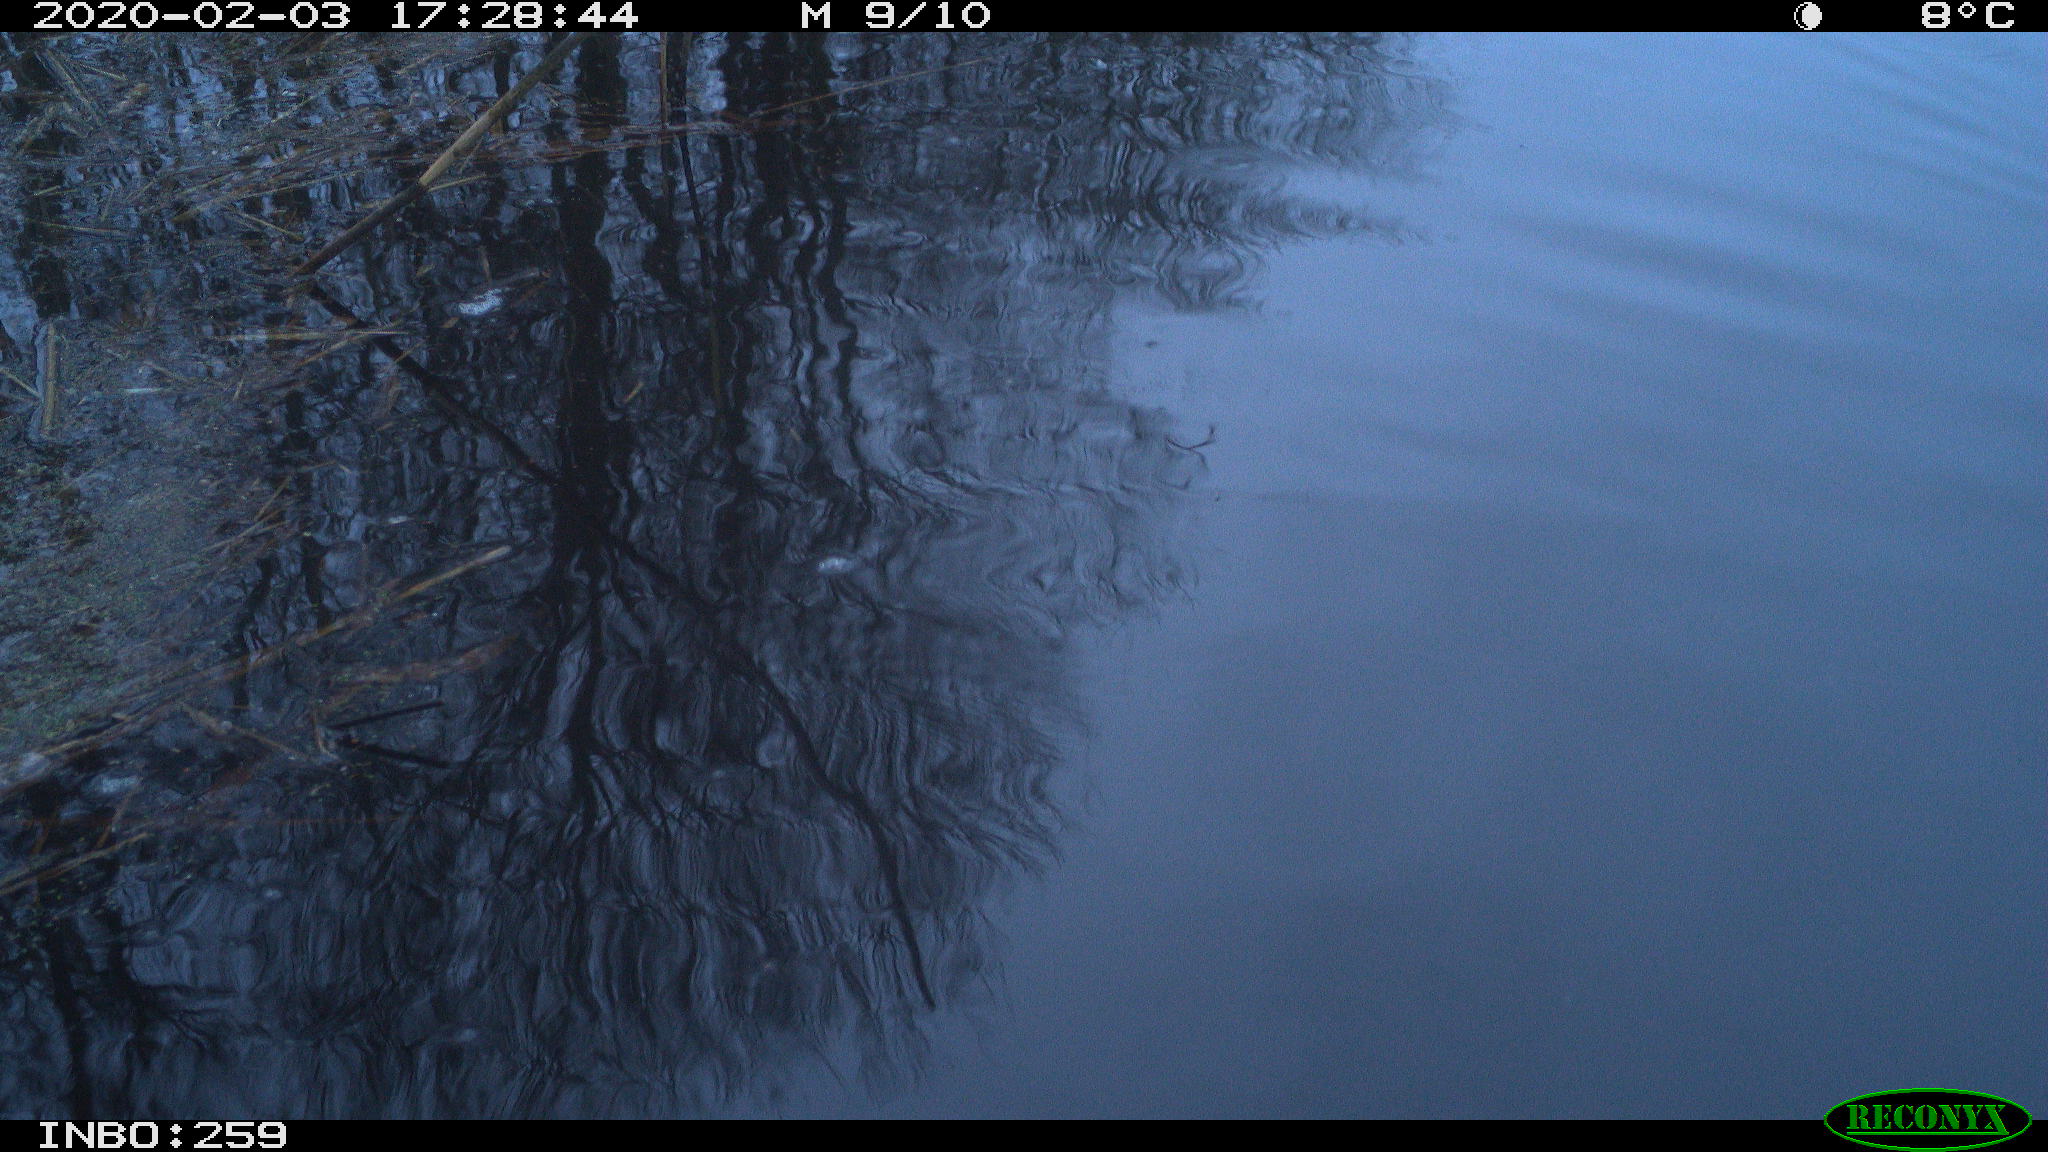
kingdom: Animalia
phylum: Chordata
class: Aves
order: Gruiformes
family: Rallidae
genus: Gallinula
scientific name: Gallinula chloropus
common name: Common moorhen
